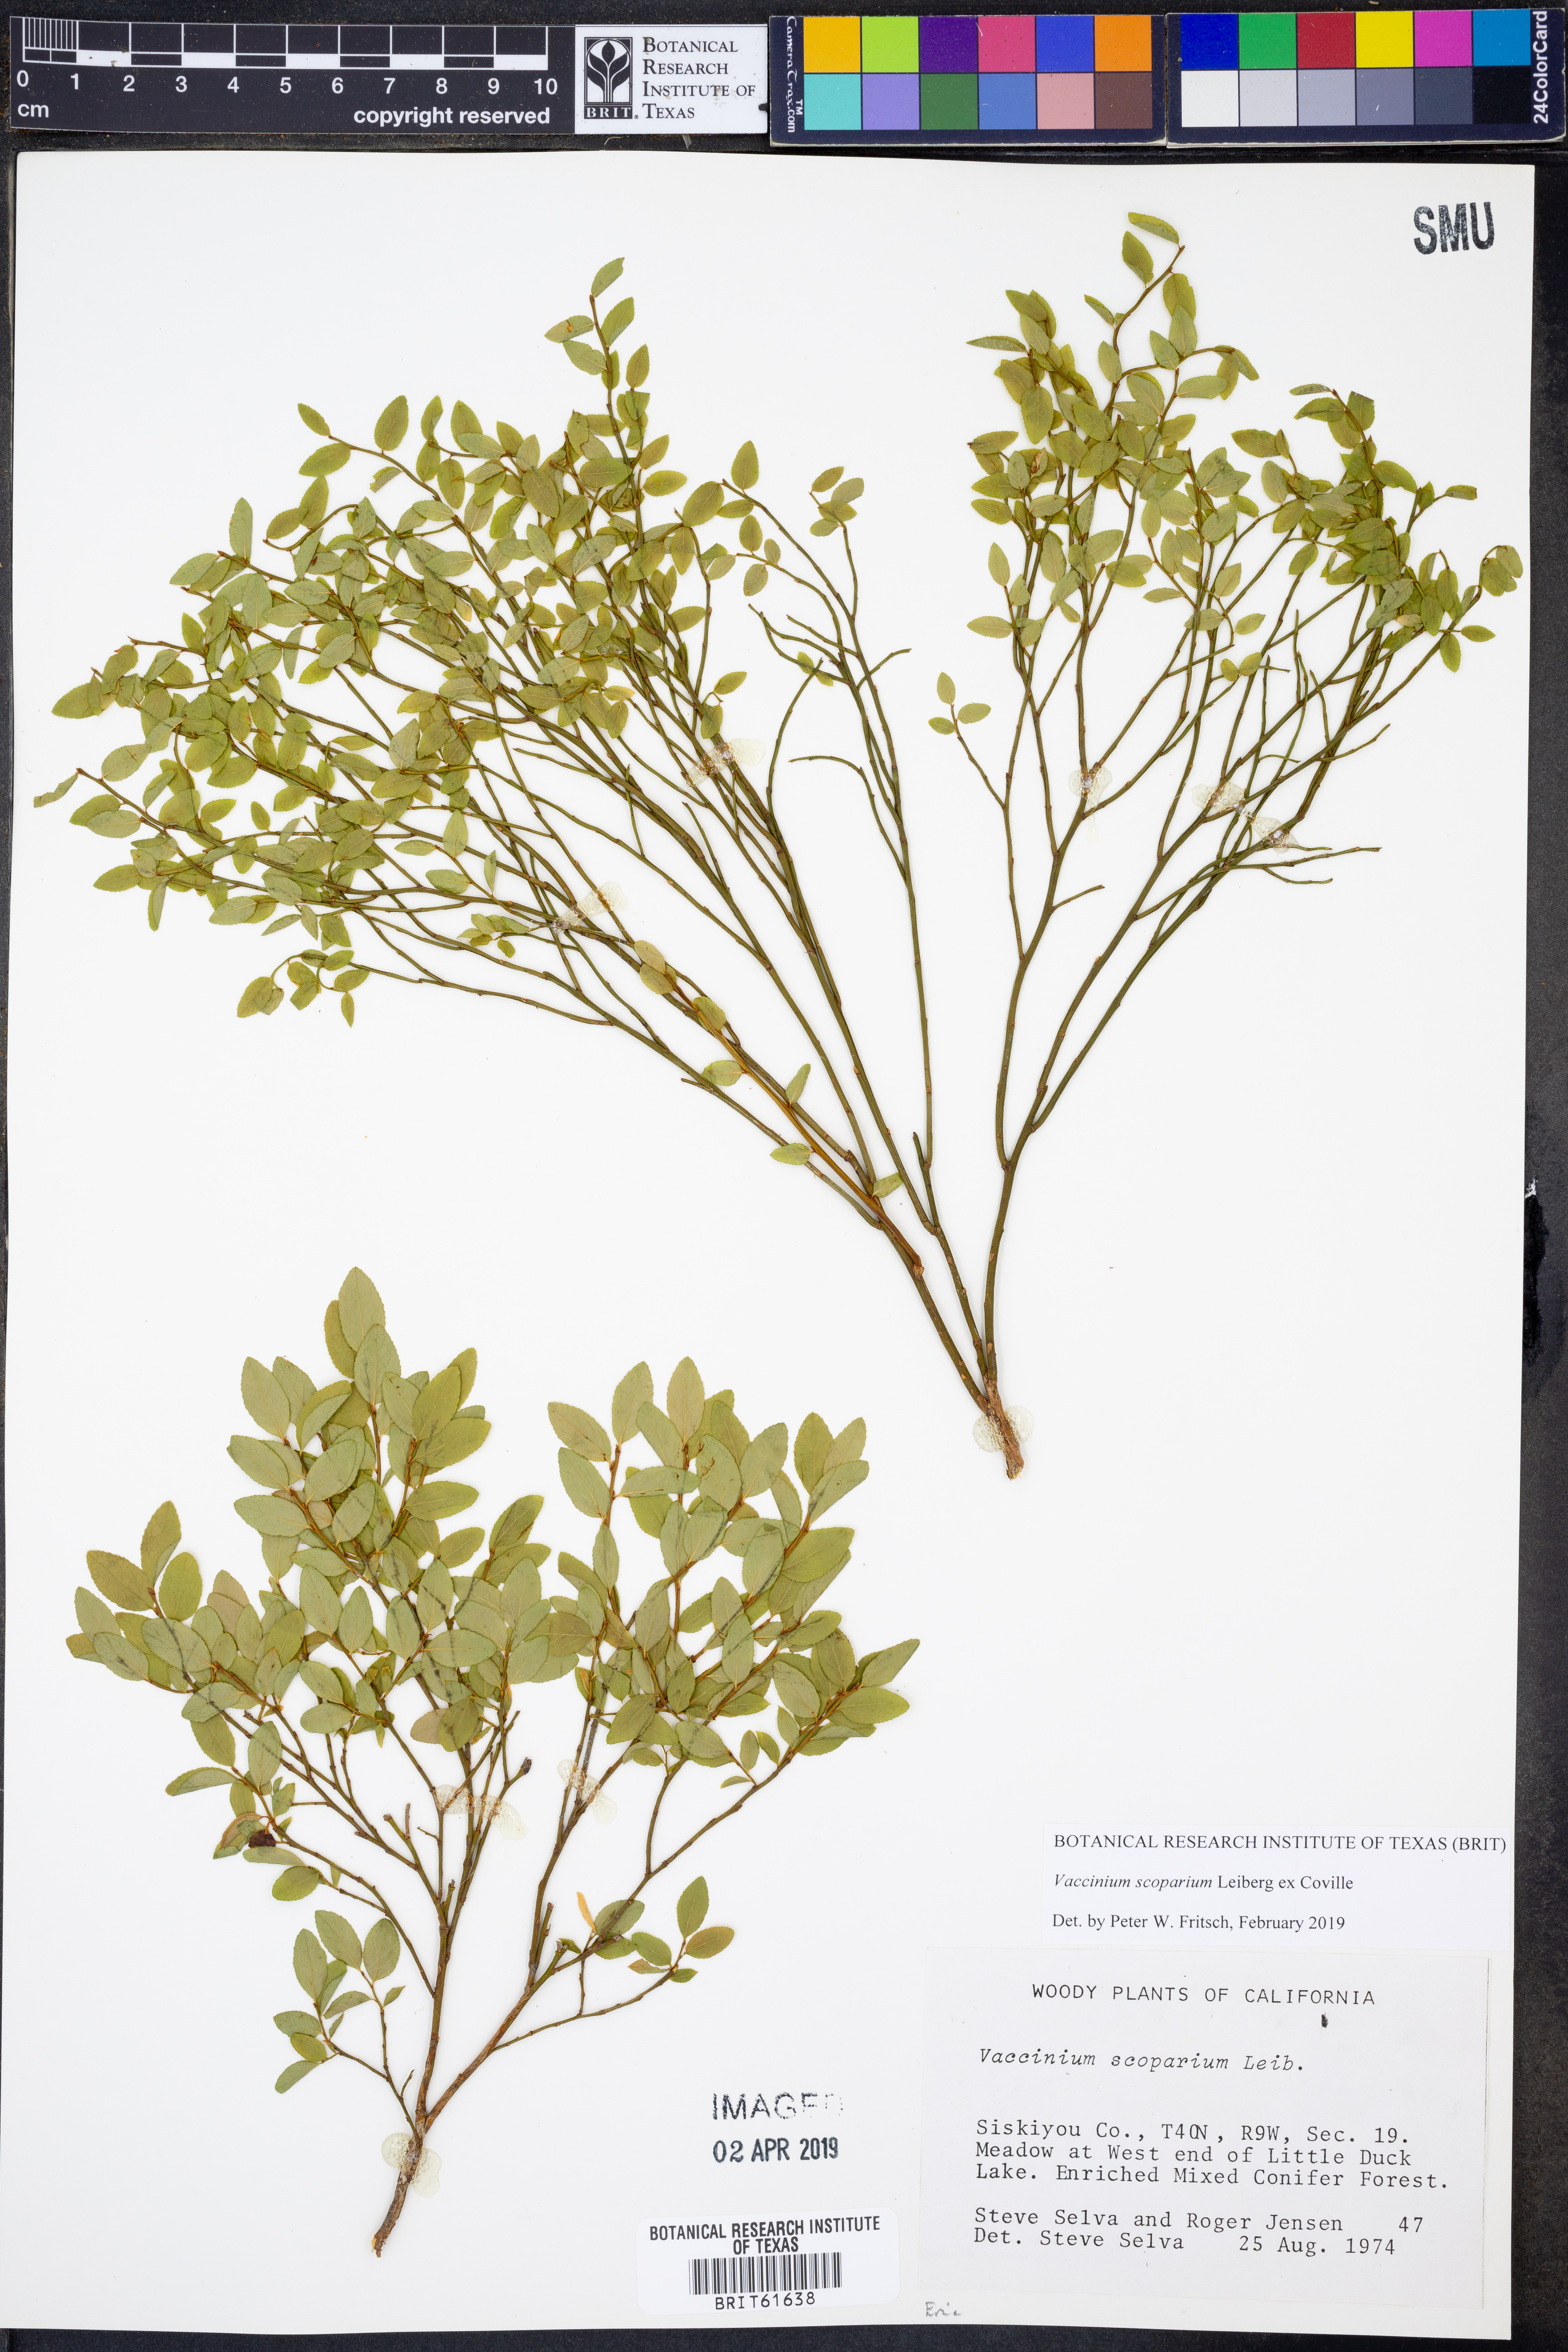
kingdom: Plantae
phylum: Tracheophyta
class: Magnoliopsida
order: Ericales
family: Ericaceae
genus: Vaccinium
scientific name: Vaccinium scoparium
